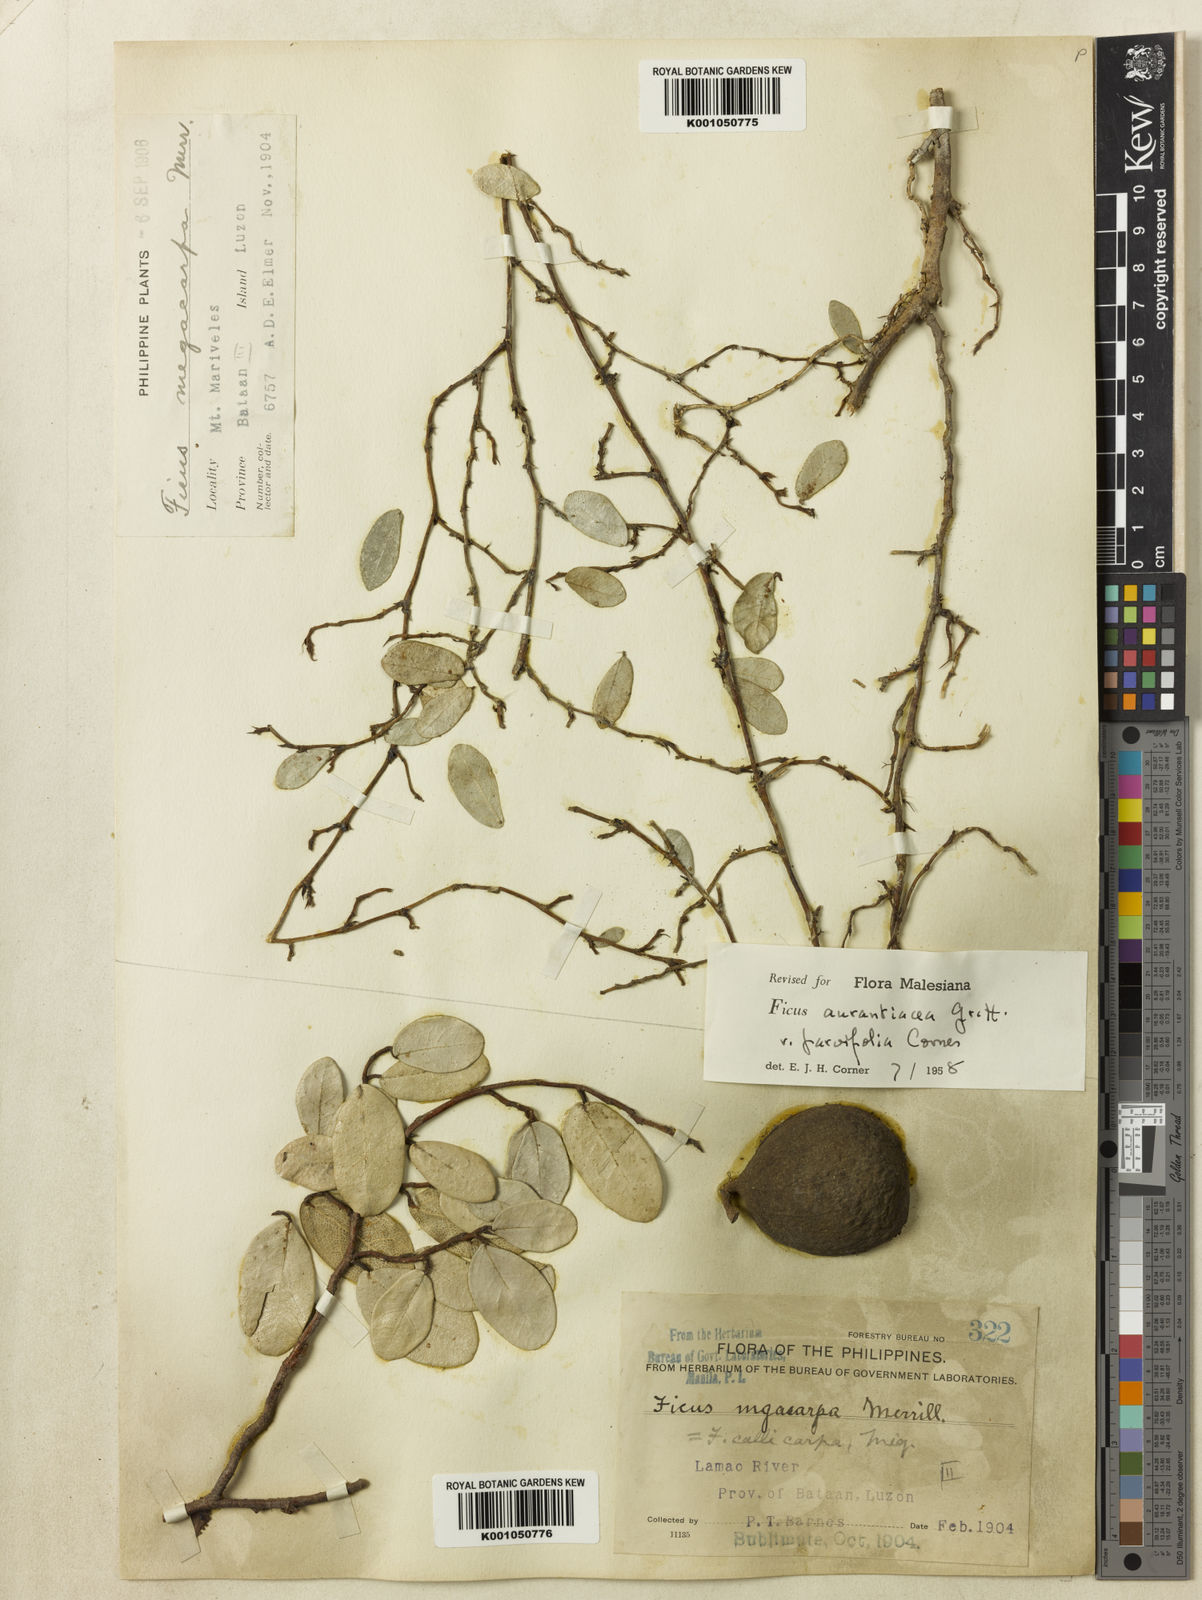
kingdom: Plantae
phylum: Tracheophyta
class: Magnoliopsida
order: Rosales
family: Moraceae
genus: Ficus
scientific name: Ficus
